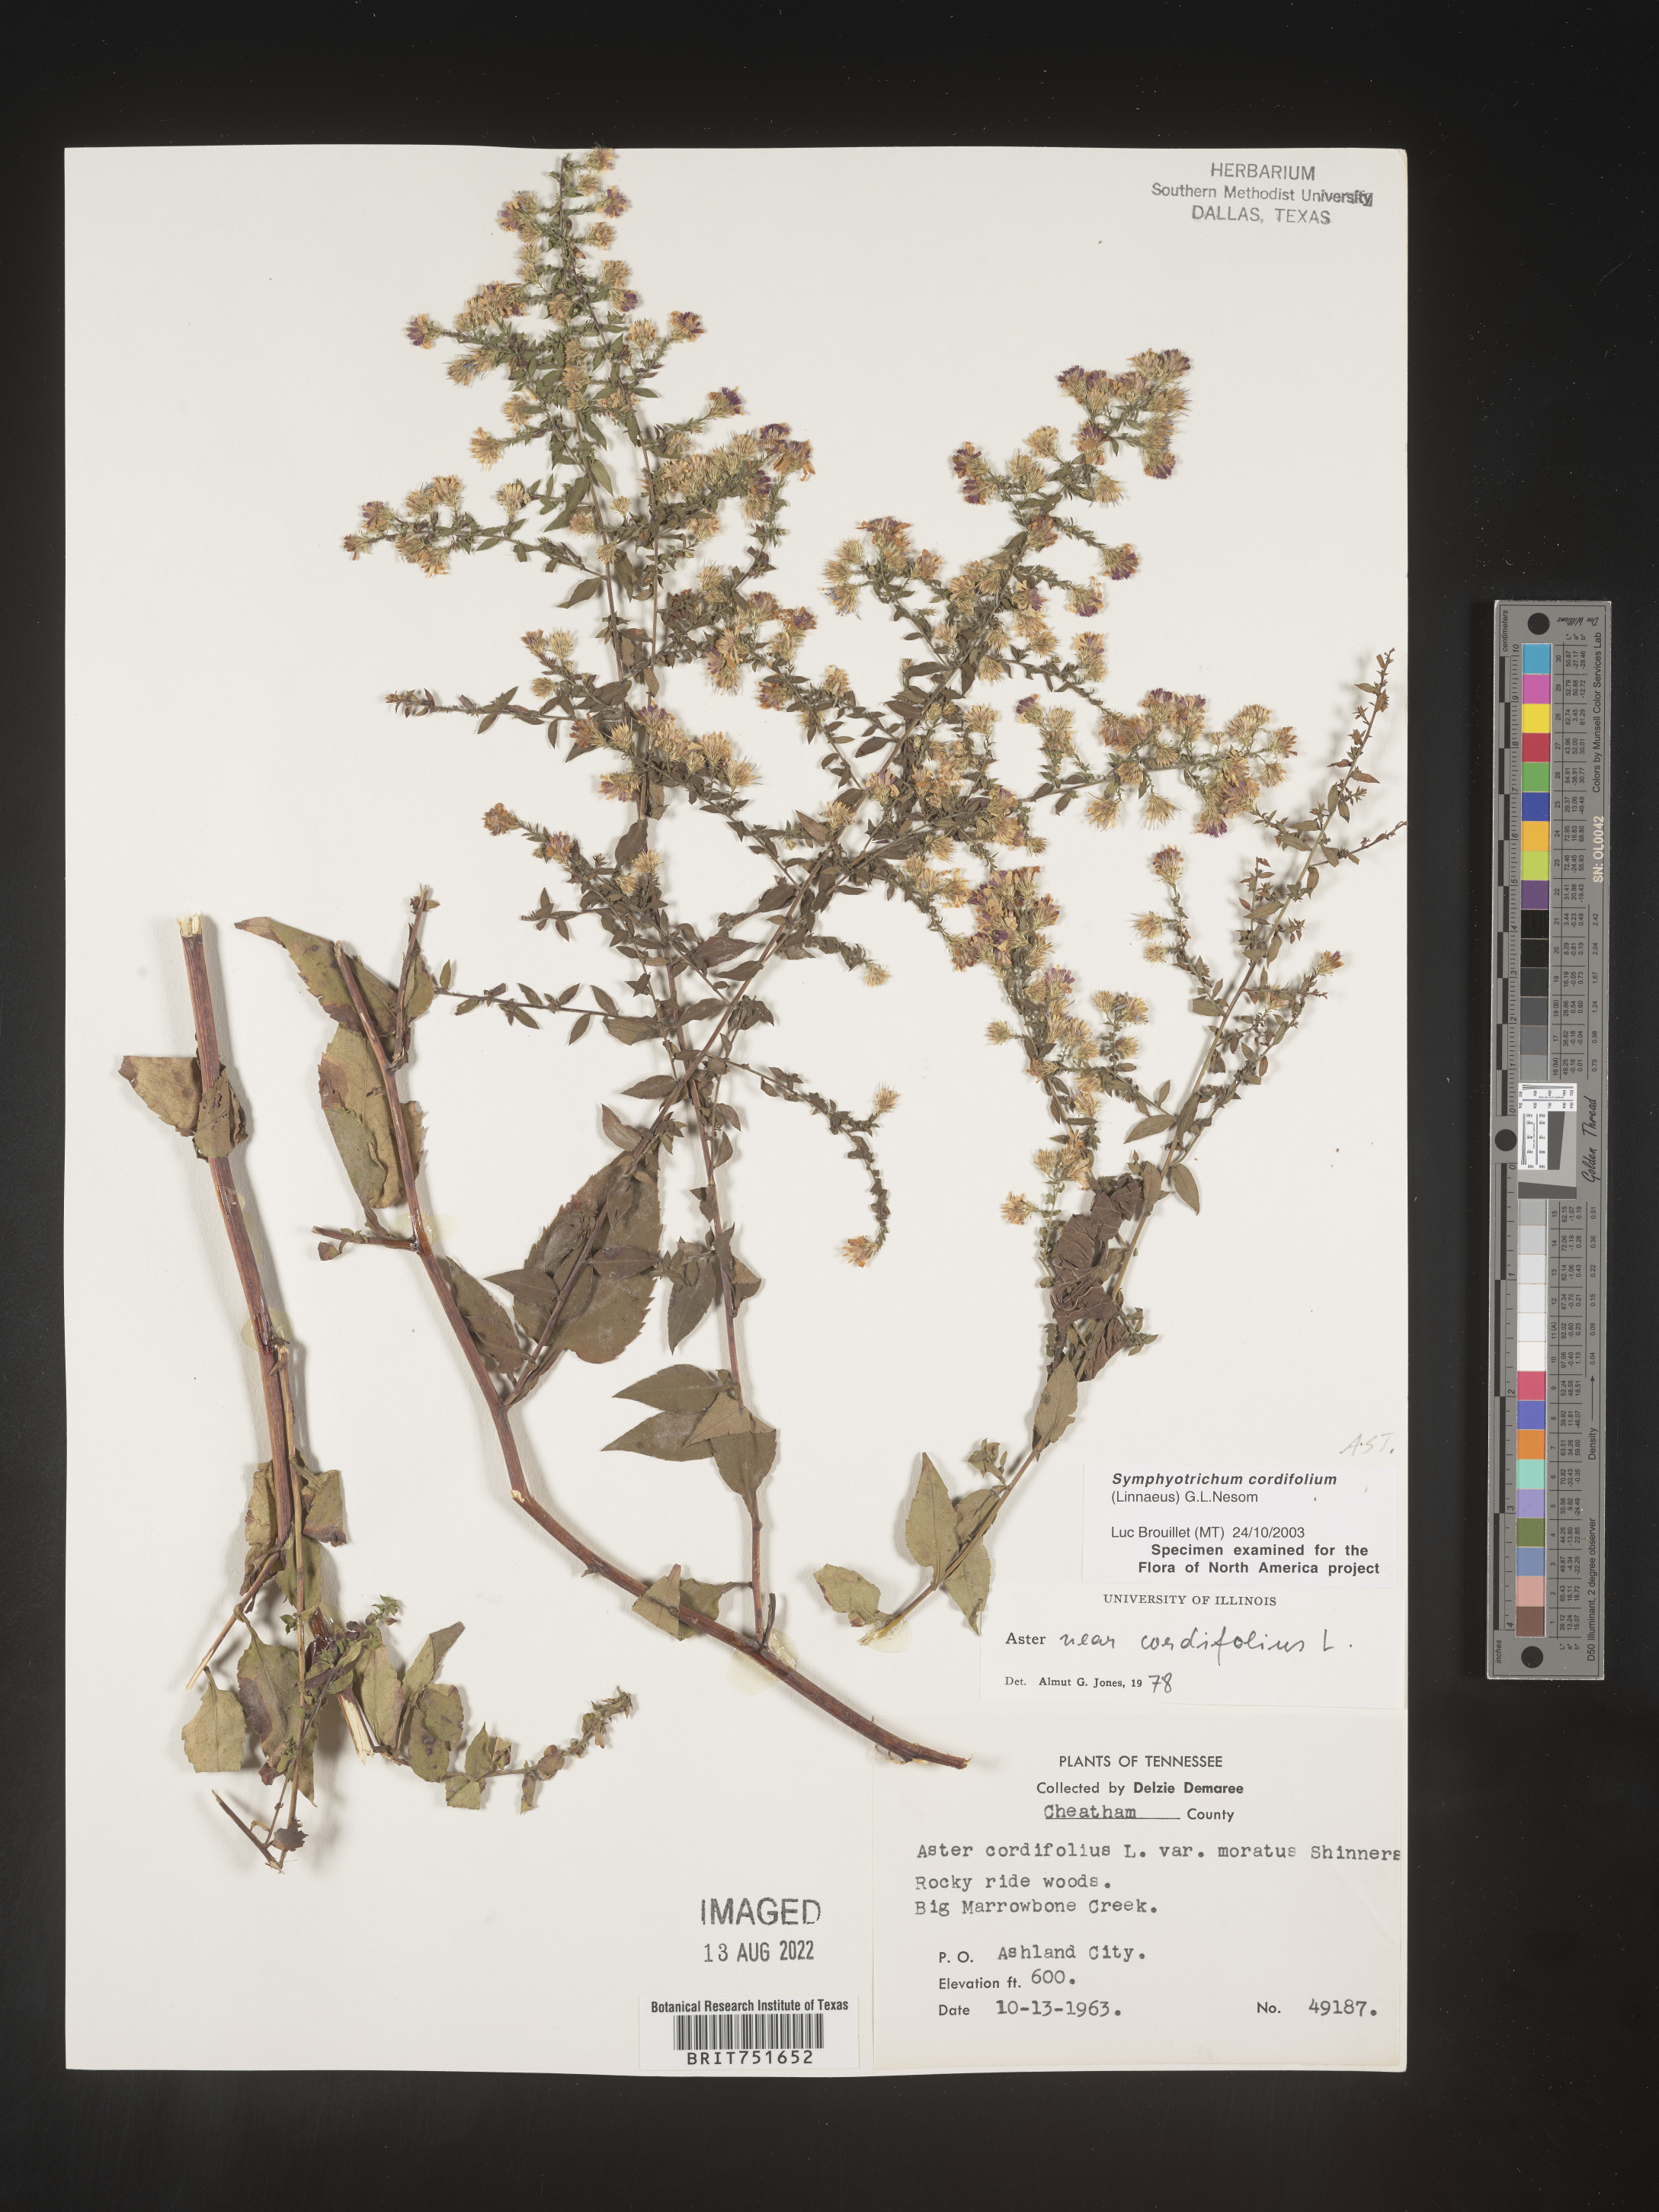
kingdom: Plantae
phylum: Tracheophyta
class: Magnoliopsida
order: Asterales
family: Asteraceae
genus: Symphyotrichum
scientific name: Symphyotrichum cordifolium
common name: Beeweed
